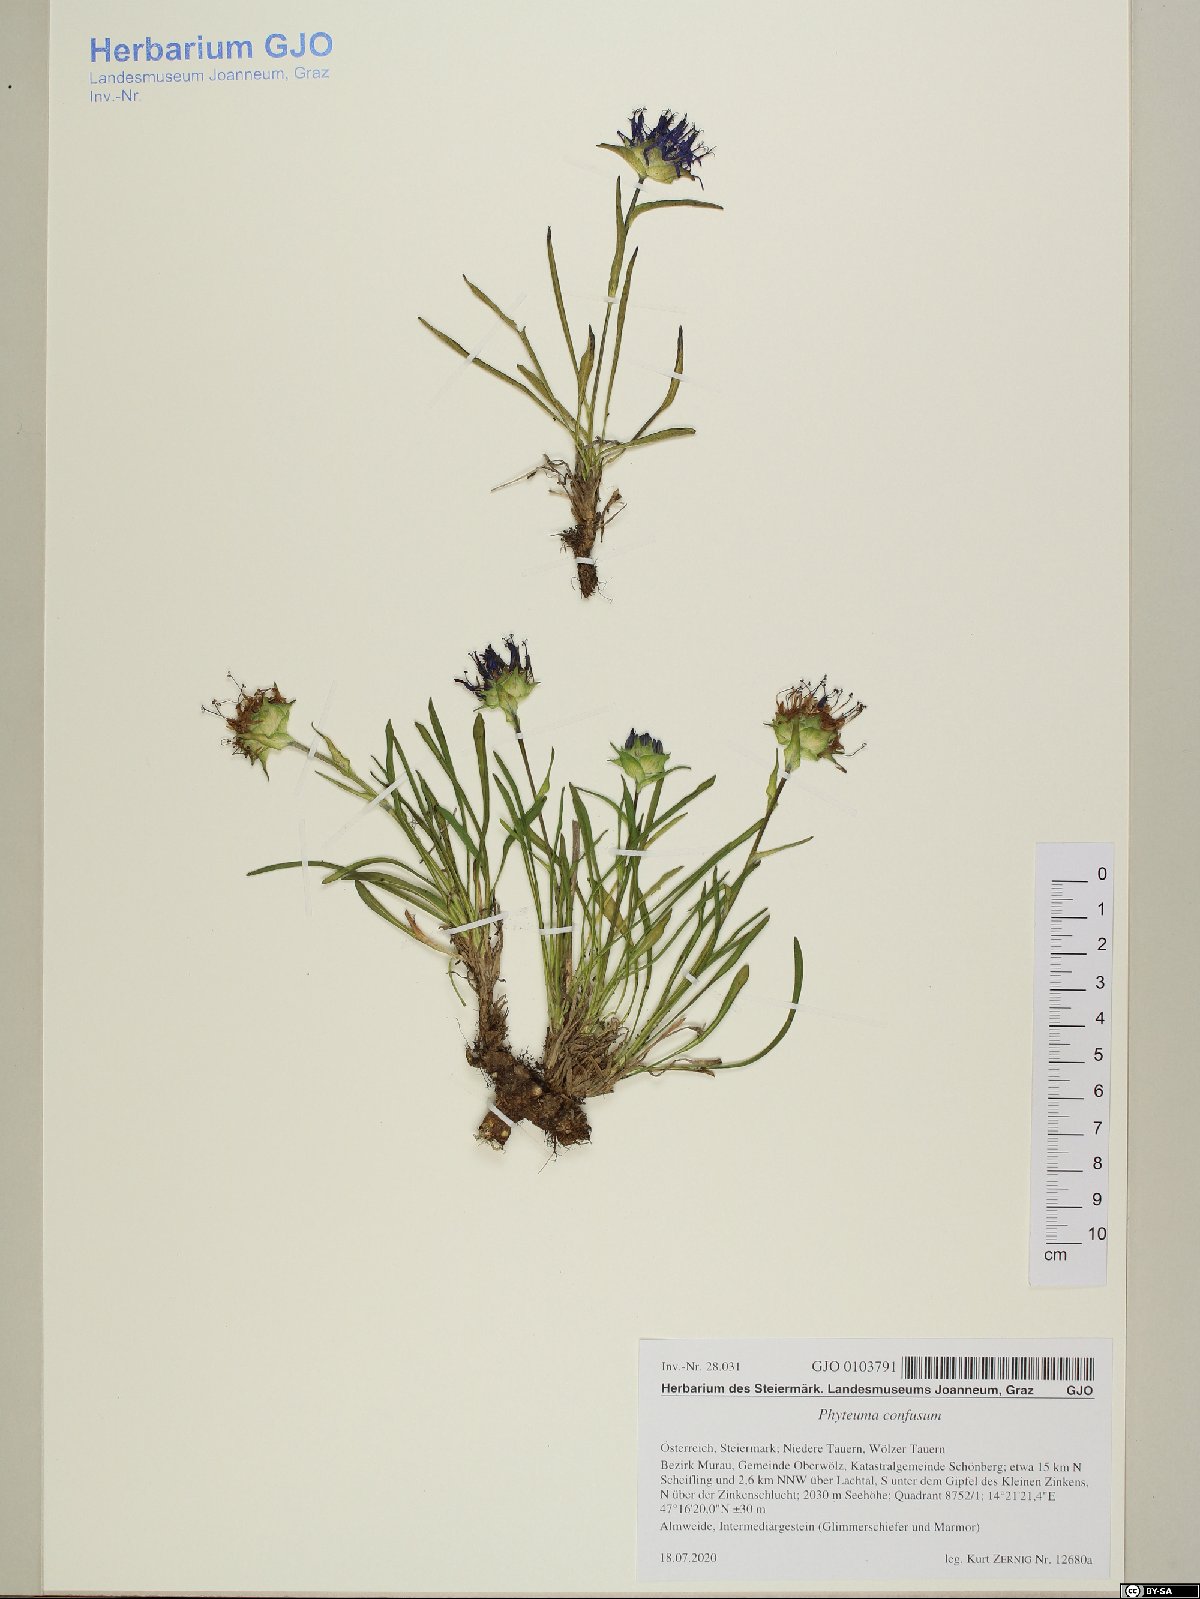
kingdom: Plantae
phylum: Tracheophyta
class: Magnoliopsida
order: Asterales
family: Campanulaceae
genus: Phyteuma
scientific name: Phyteuma confusum
